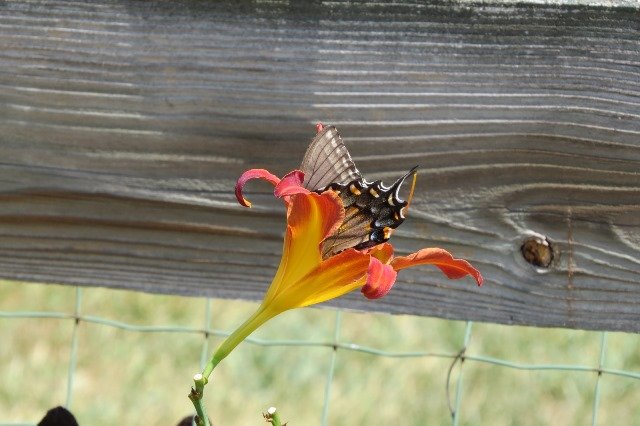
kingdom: Animalia
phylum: Arthropoda
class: Insecta
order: Lepidoptera
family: Papilionidae
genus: Pterourus
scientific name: Pterourus glaucus
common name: Eastern Tiger Swallowtail
